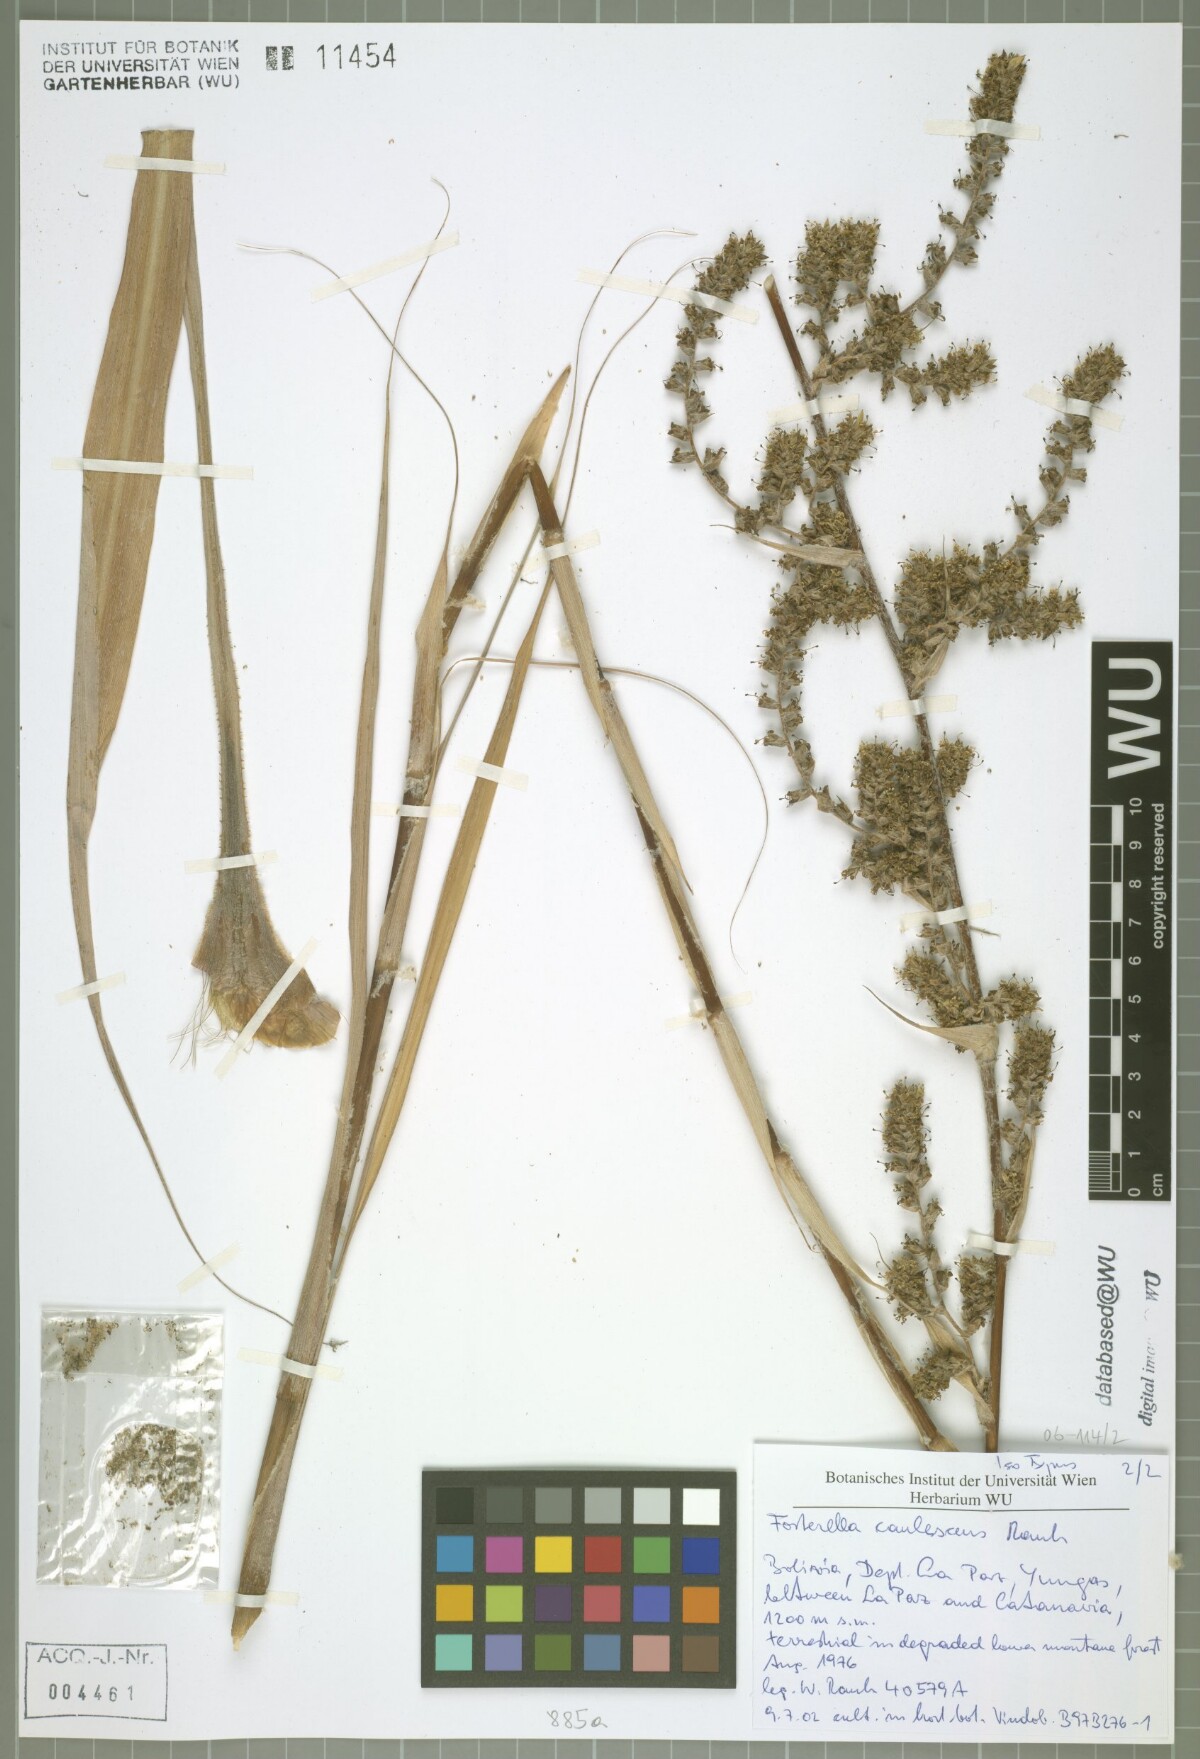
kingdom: Plantae
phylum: Tracheophyta
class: Liliopsida
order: Poales
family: Bromeliaceae
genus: Fosterella
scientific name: Fosterella caulescens
